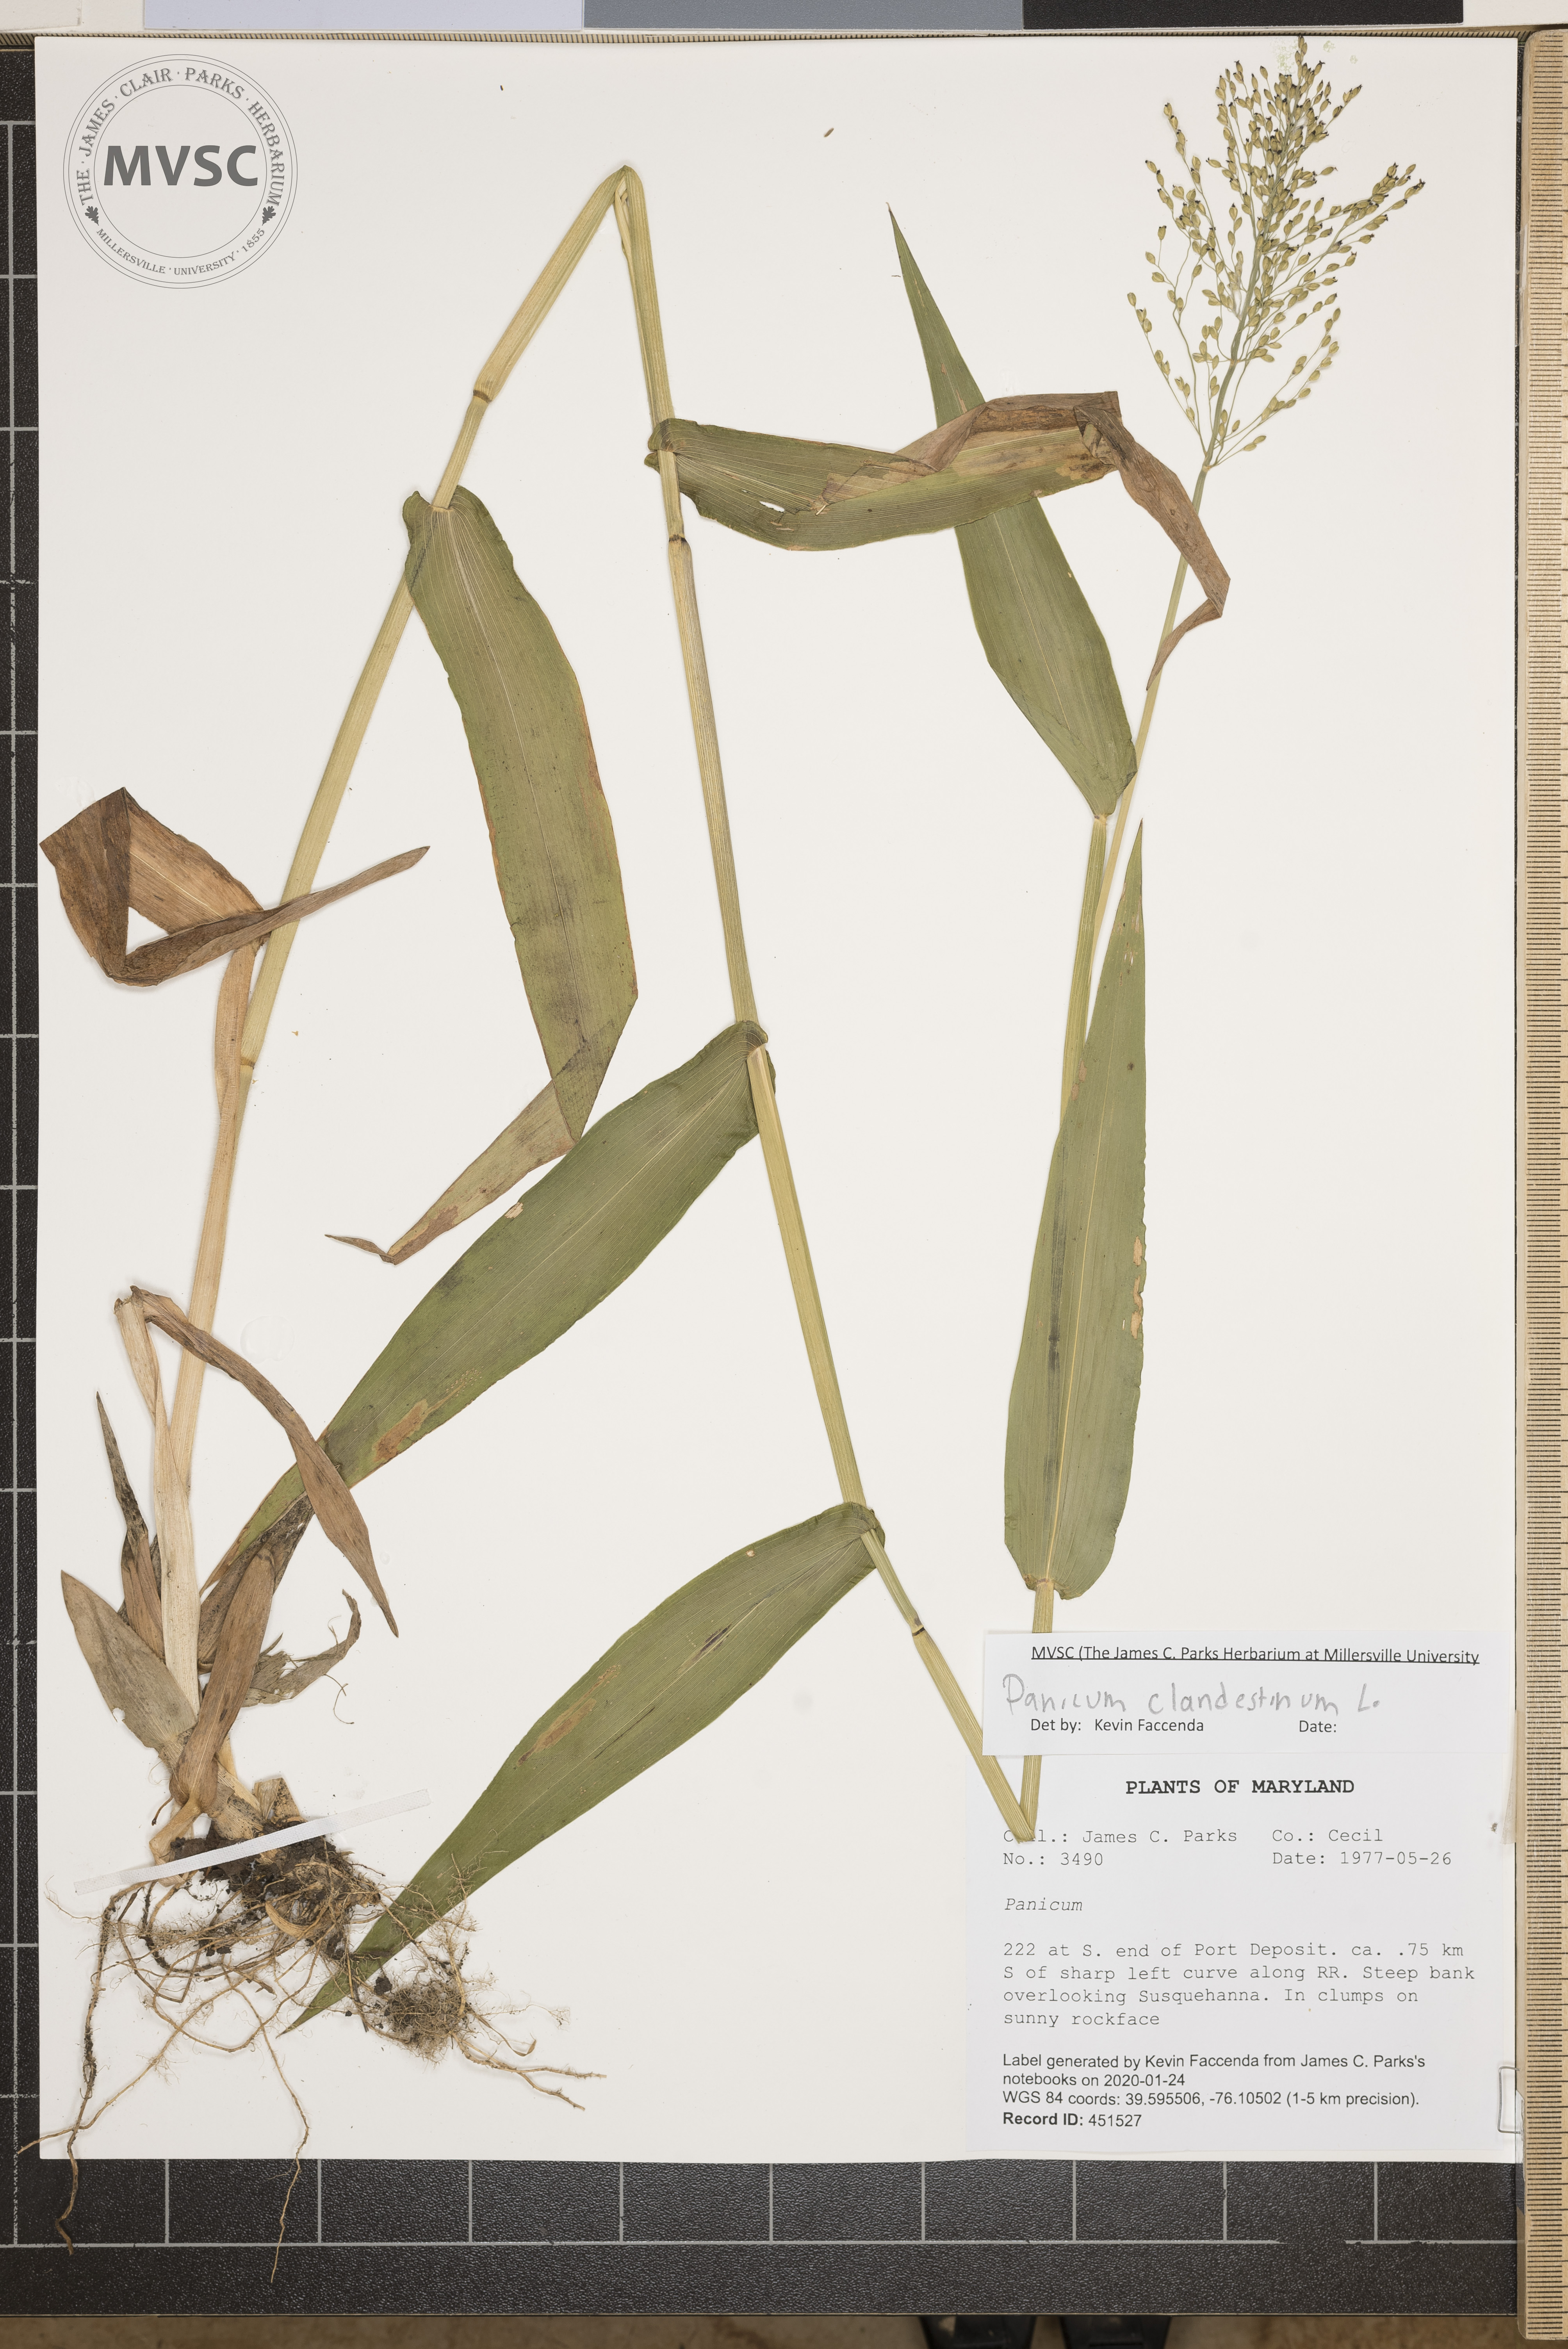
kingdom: Plantae
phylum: Tracheophyta
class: Liliopsida
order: Poales
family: Poaceae
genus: Dichanthelium
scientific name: Dichanthelium clandestinum
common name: Deer-tongue grass
